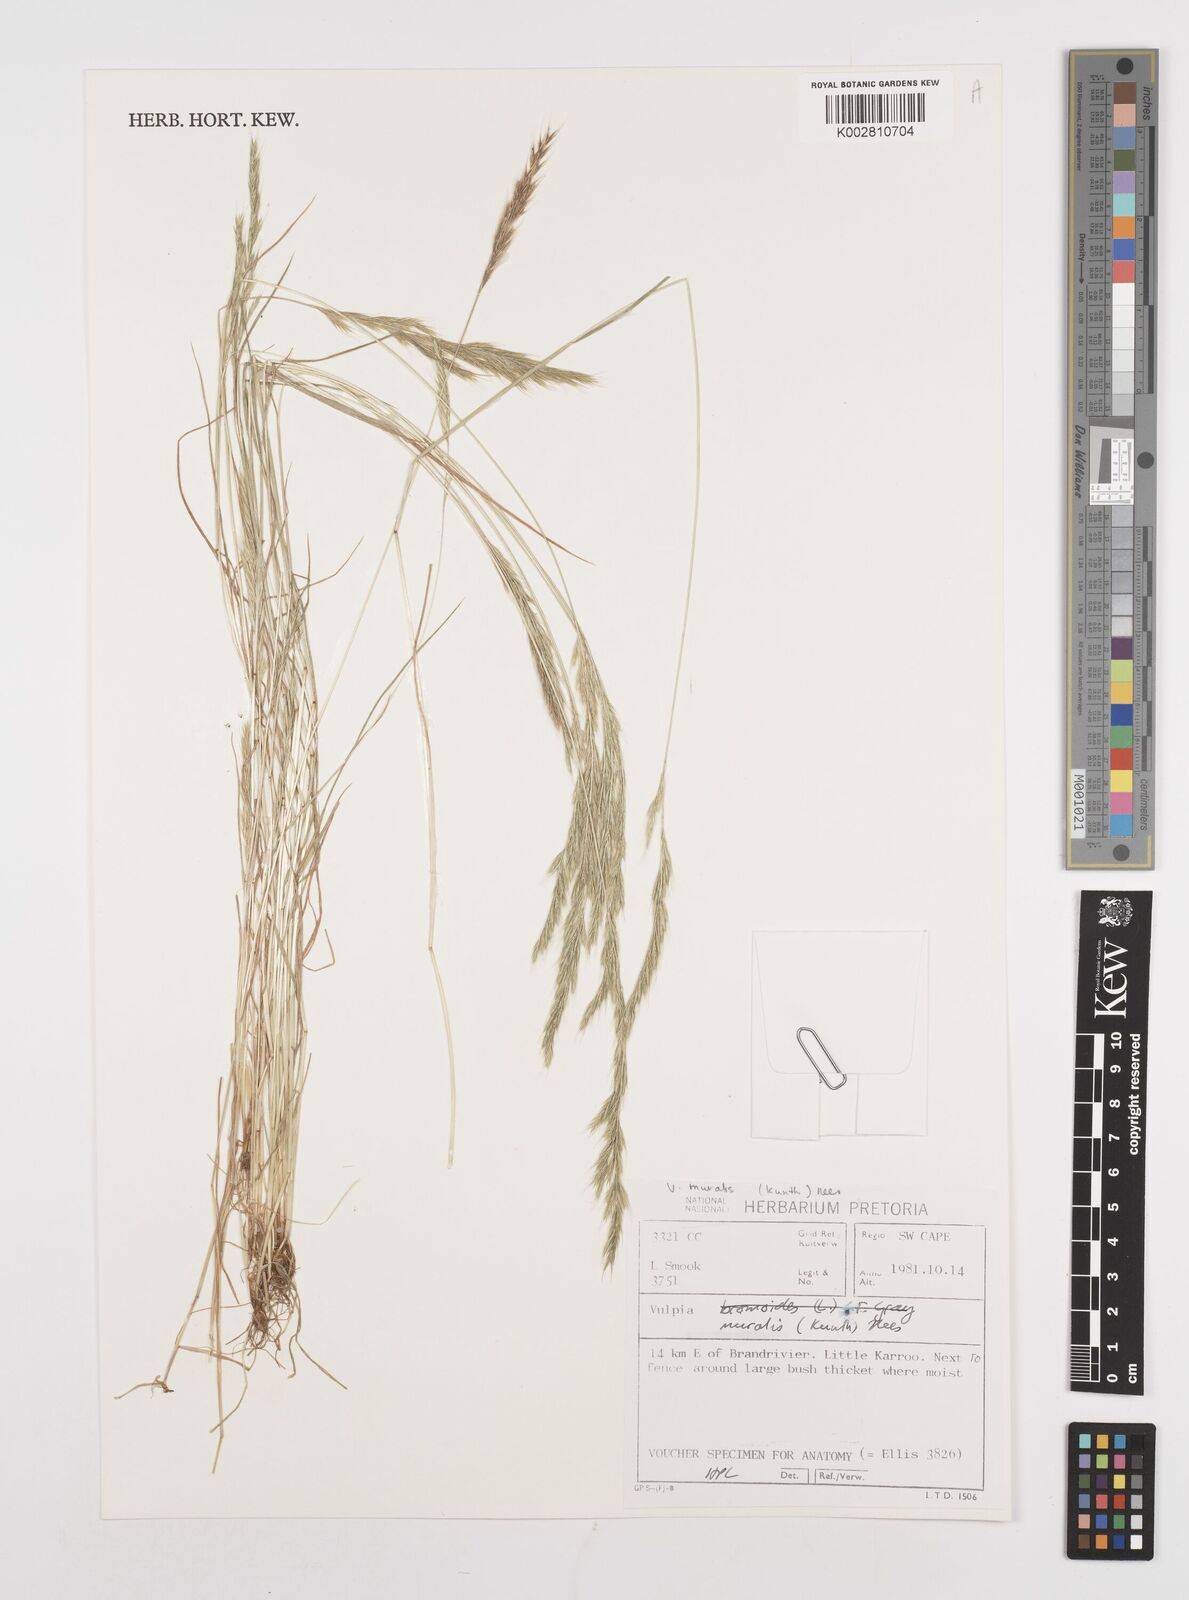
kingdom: Plantae
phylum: Tracheophyta
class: Liliopsida
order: Poales
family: Poaceae
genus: Festuca
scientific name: Festuca muralis
